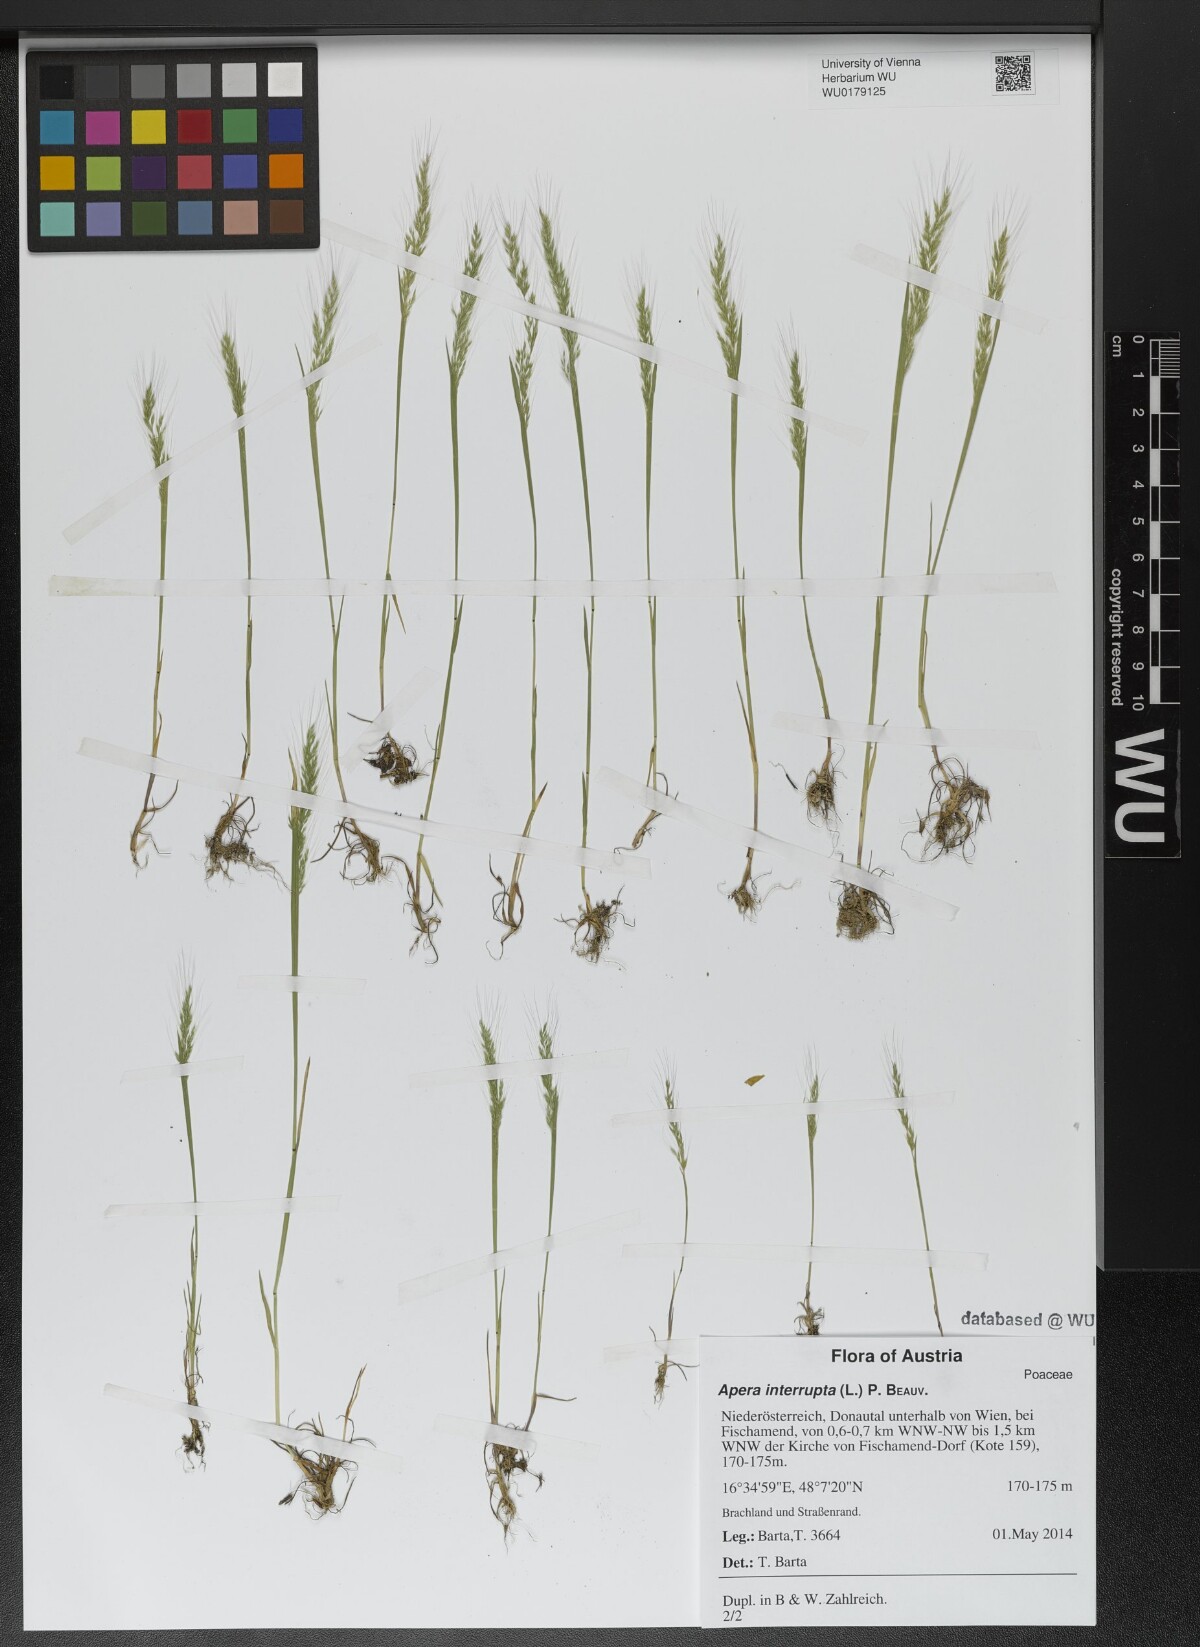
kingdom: Plantae
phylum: Tracheophyta
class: Liliopsida
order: Poales
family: Poaceae
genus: Apera
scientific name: Apera interrupta
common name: Dense silky-bent
